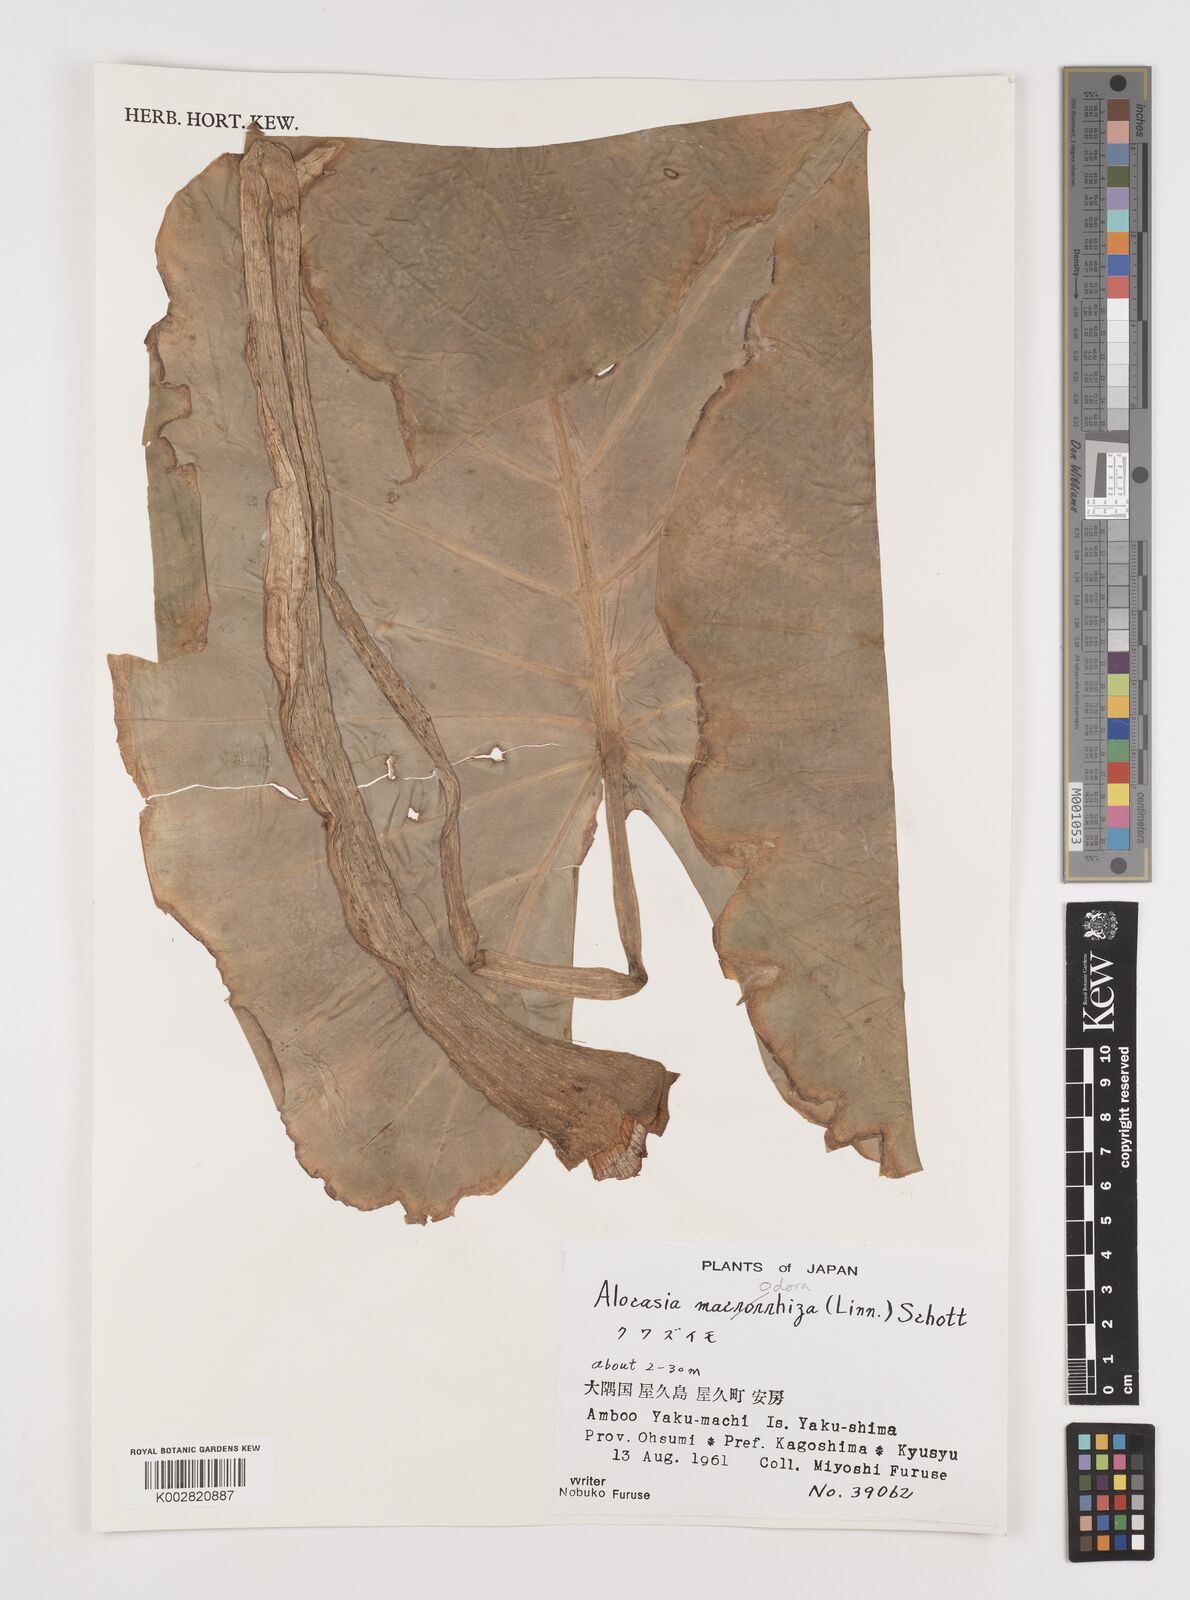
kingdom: Plantae
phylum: Tracheophyta
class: Liliopsida
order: Alismatales
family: Araceae
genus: Alocasia
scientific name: Alocasia
